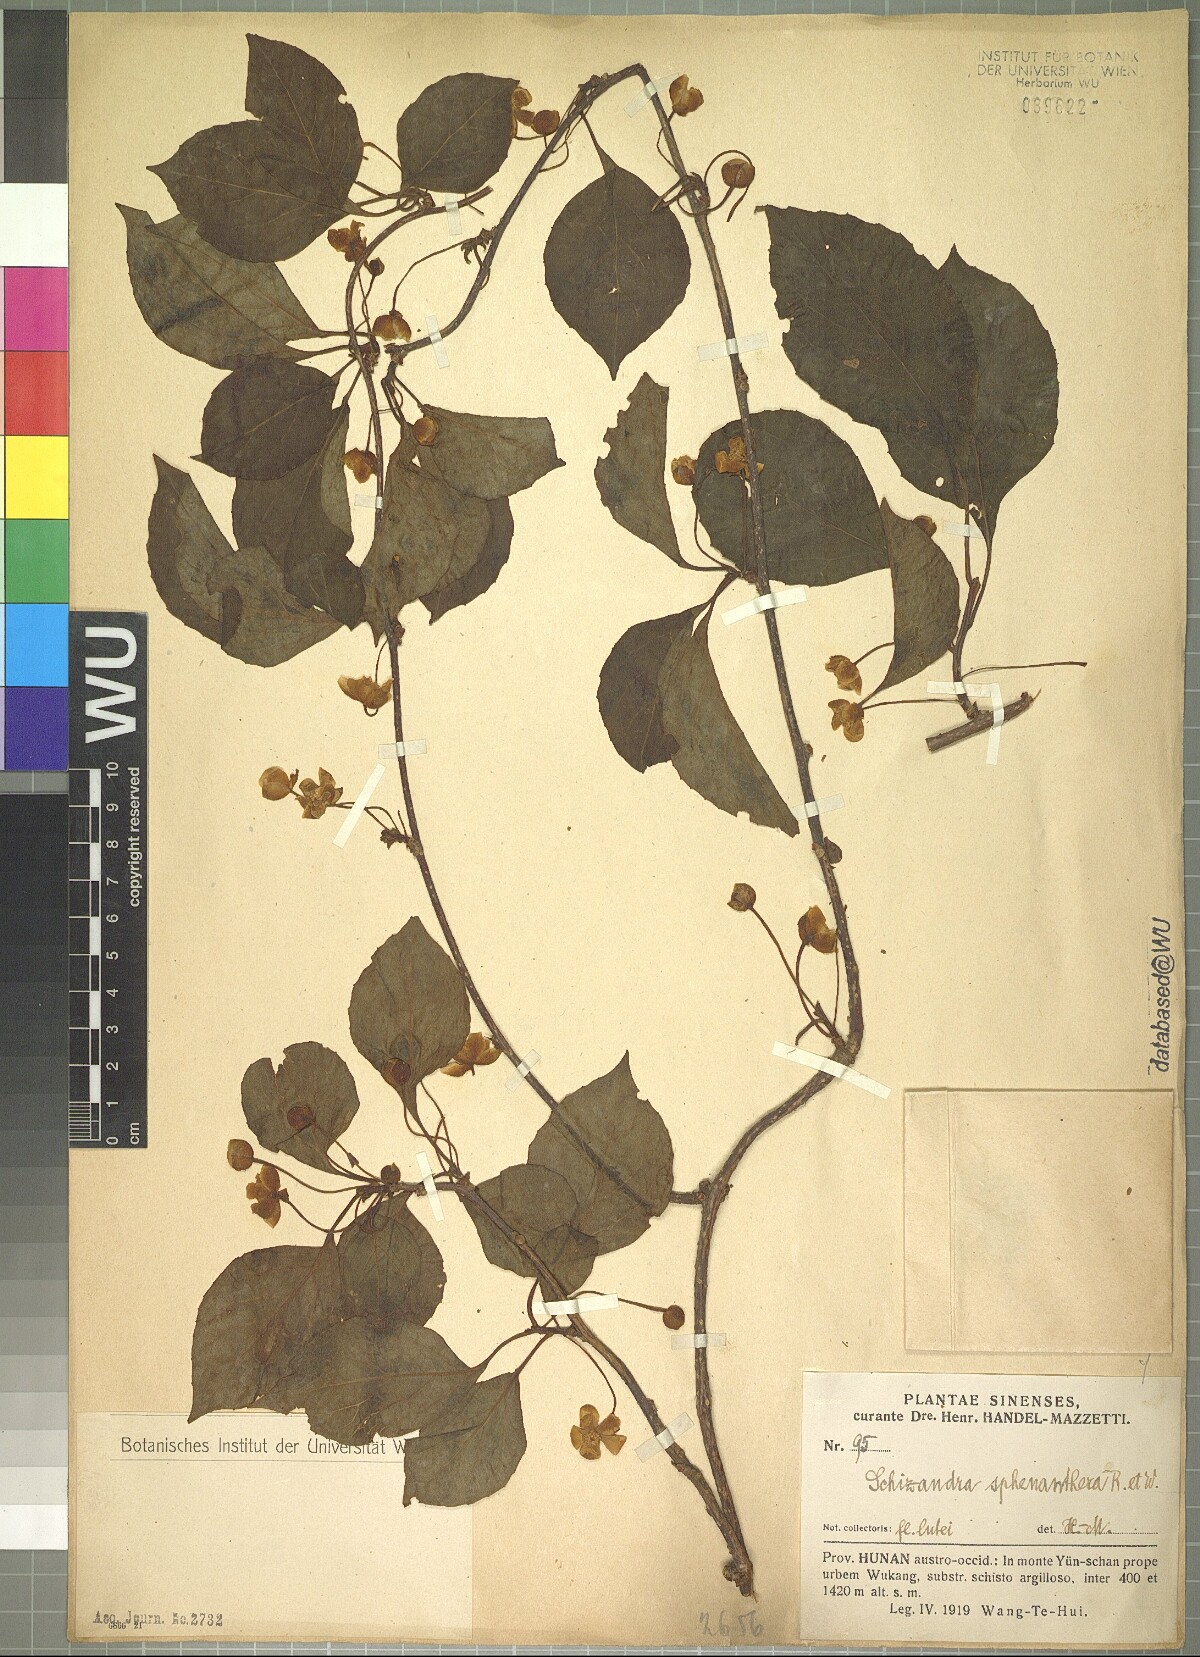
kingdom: Plantae
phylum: Tracheophyta
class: Magnoliopsida
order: Austrobaileyales
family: Schisandraceae
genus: Schisandra
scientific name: Schisandra sphenanthera
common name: Lemonwood
